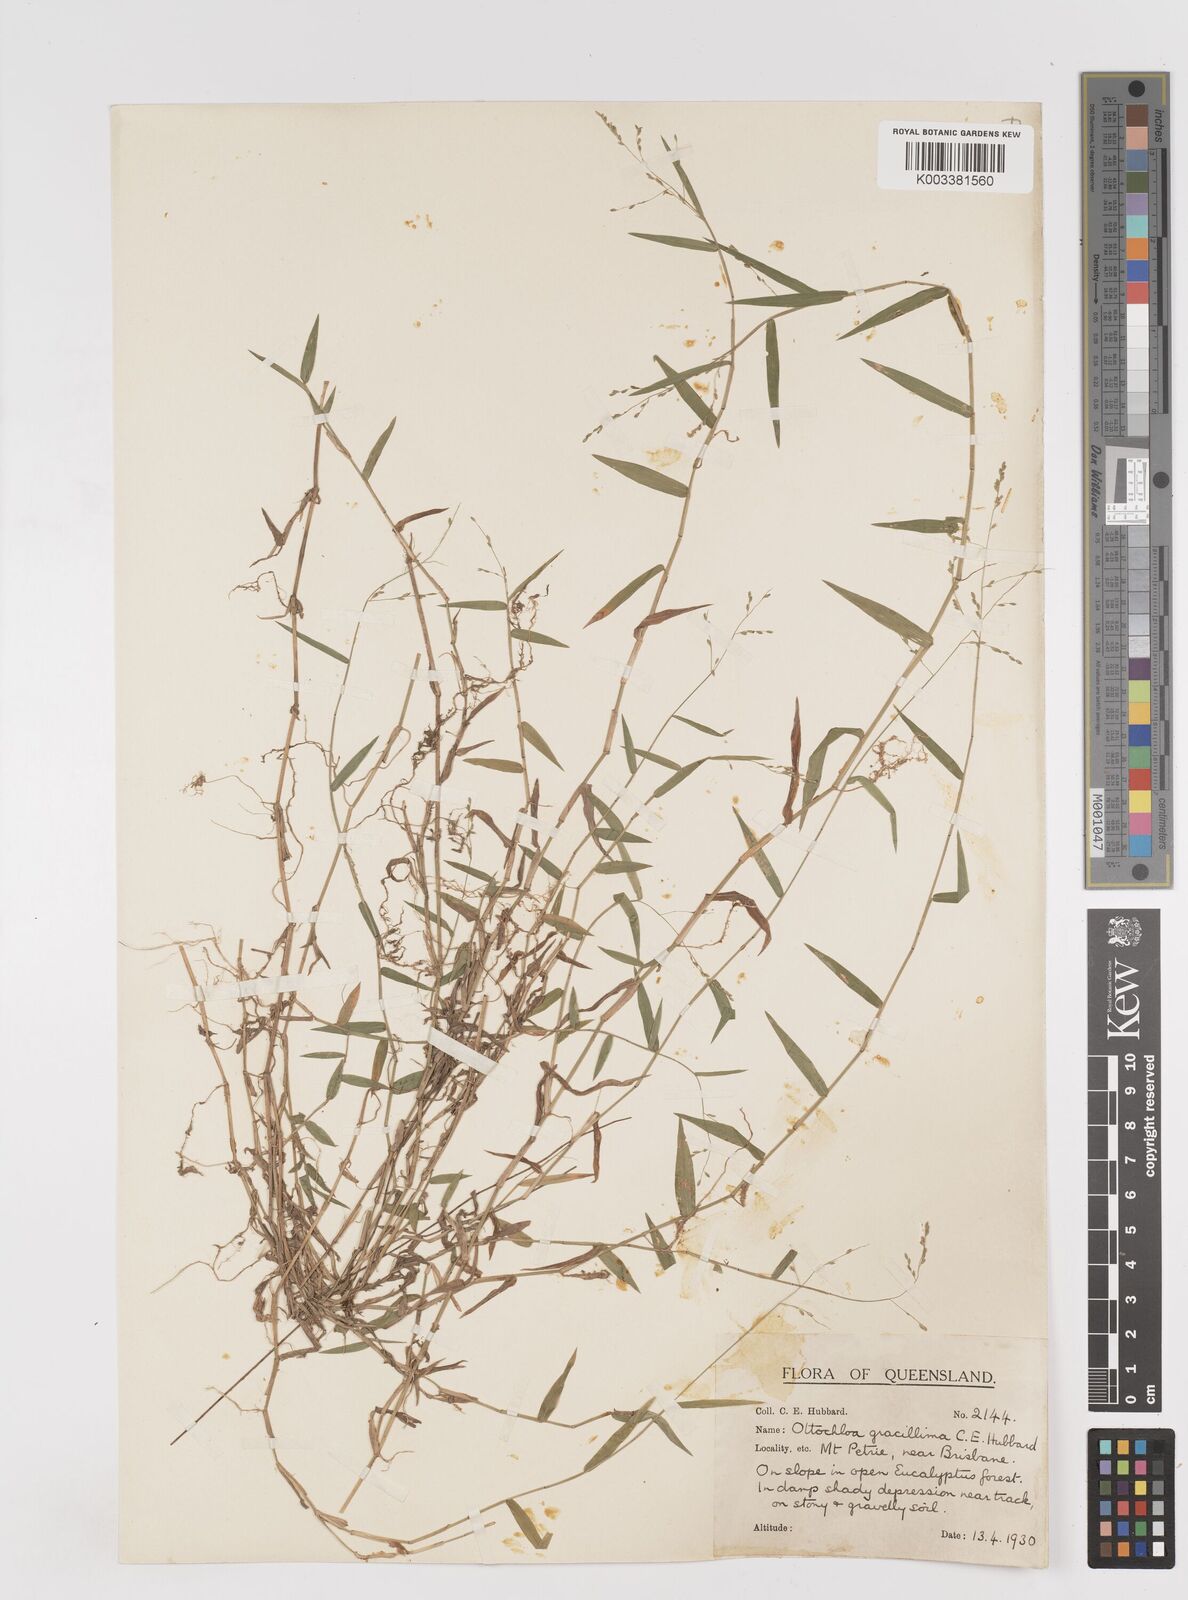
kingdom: Plantae
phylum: Tracheophyta
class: Liliopsida
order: Poales
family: Poaceae
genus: Ottochloa
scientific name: Ottochloa gracillima
